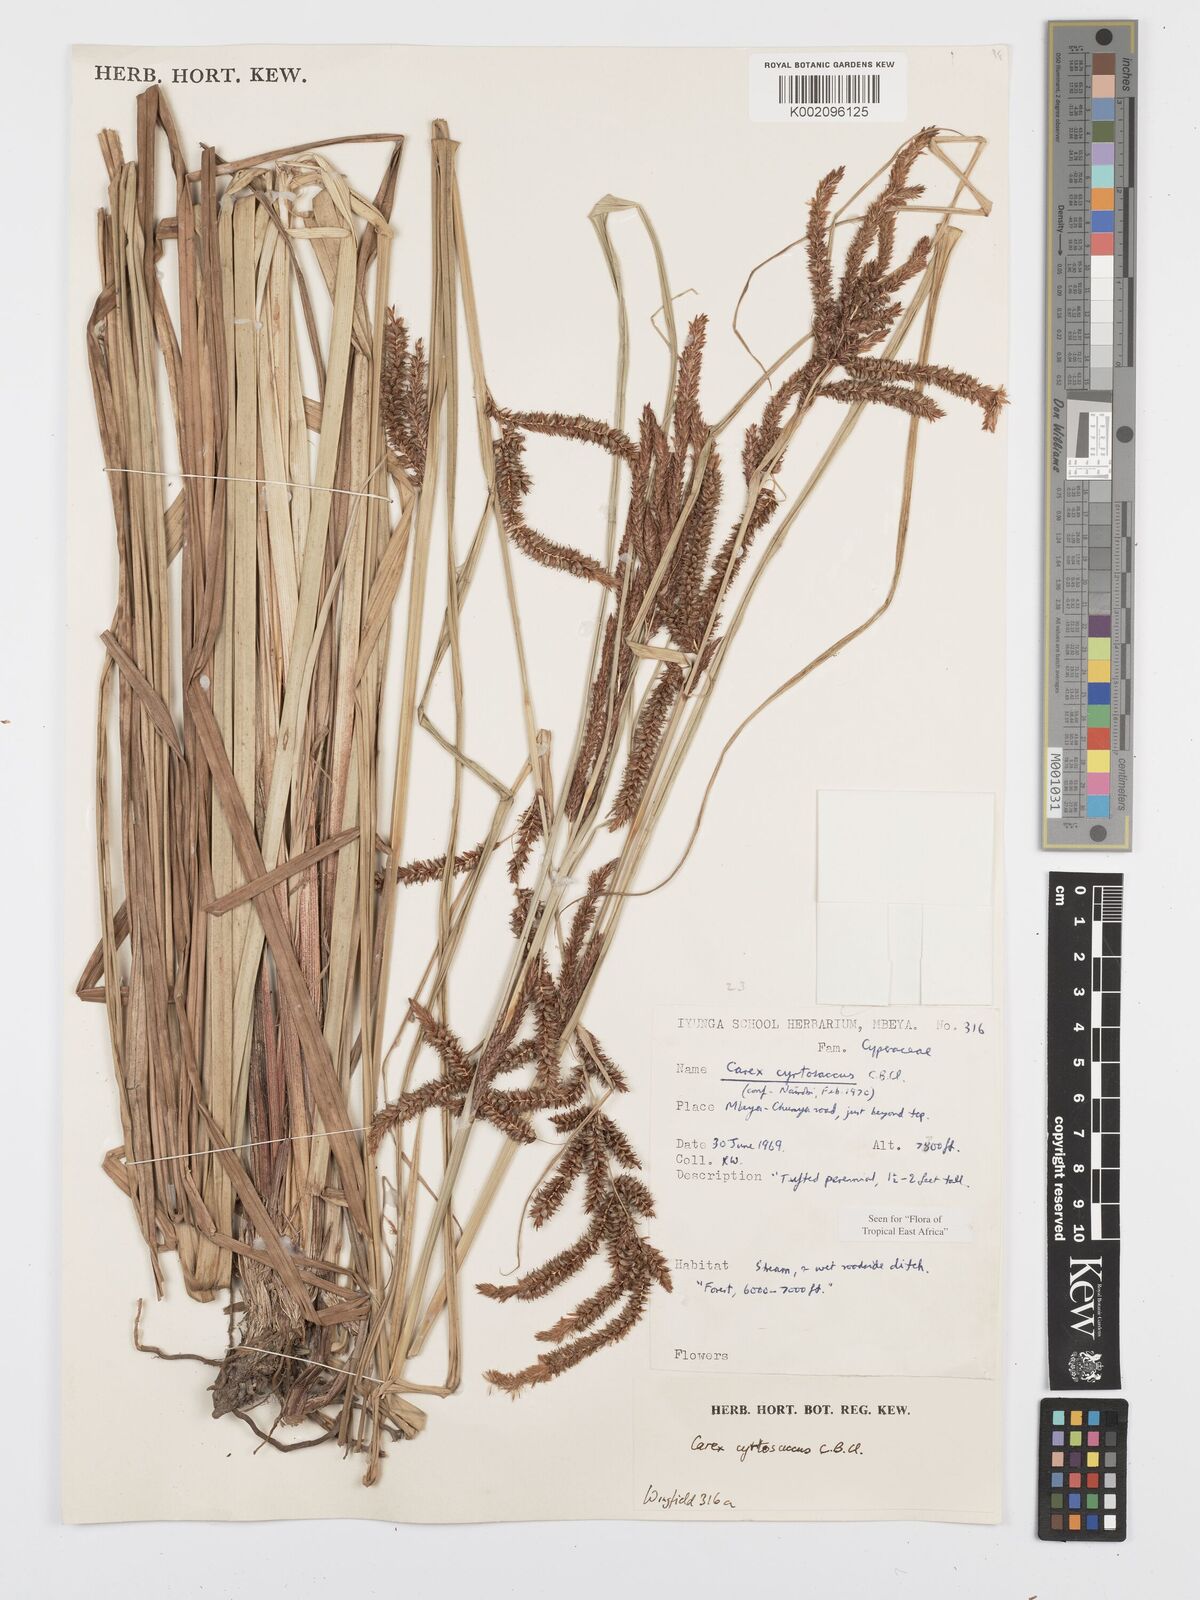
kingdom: Plantae
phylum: Tracheophyta
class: Liliopsida
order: Poales
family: Cyperaceae
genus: Carex
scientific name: Carex vallis-rosetto
